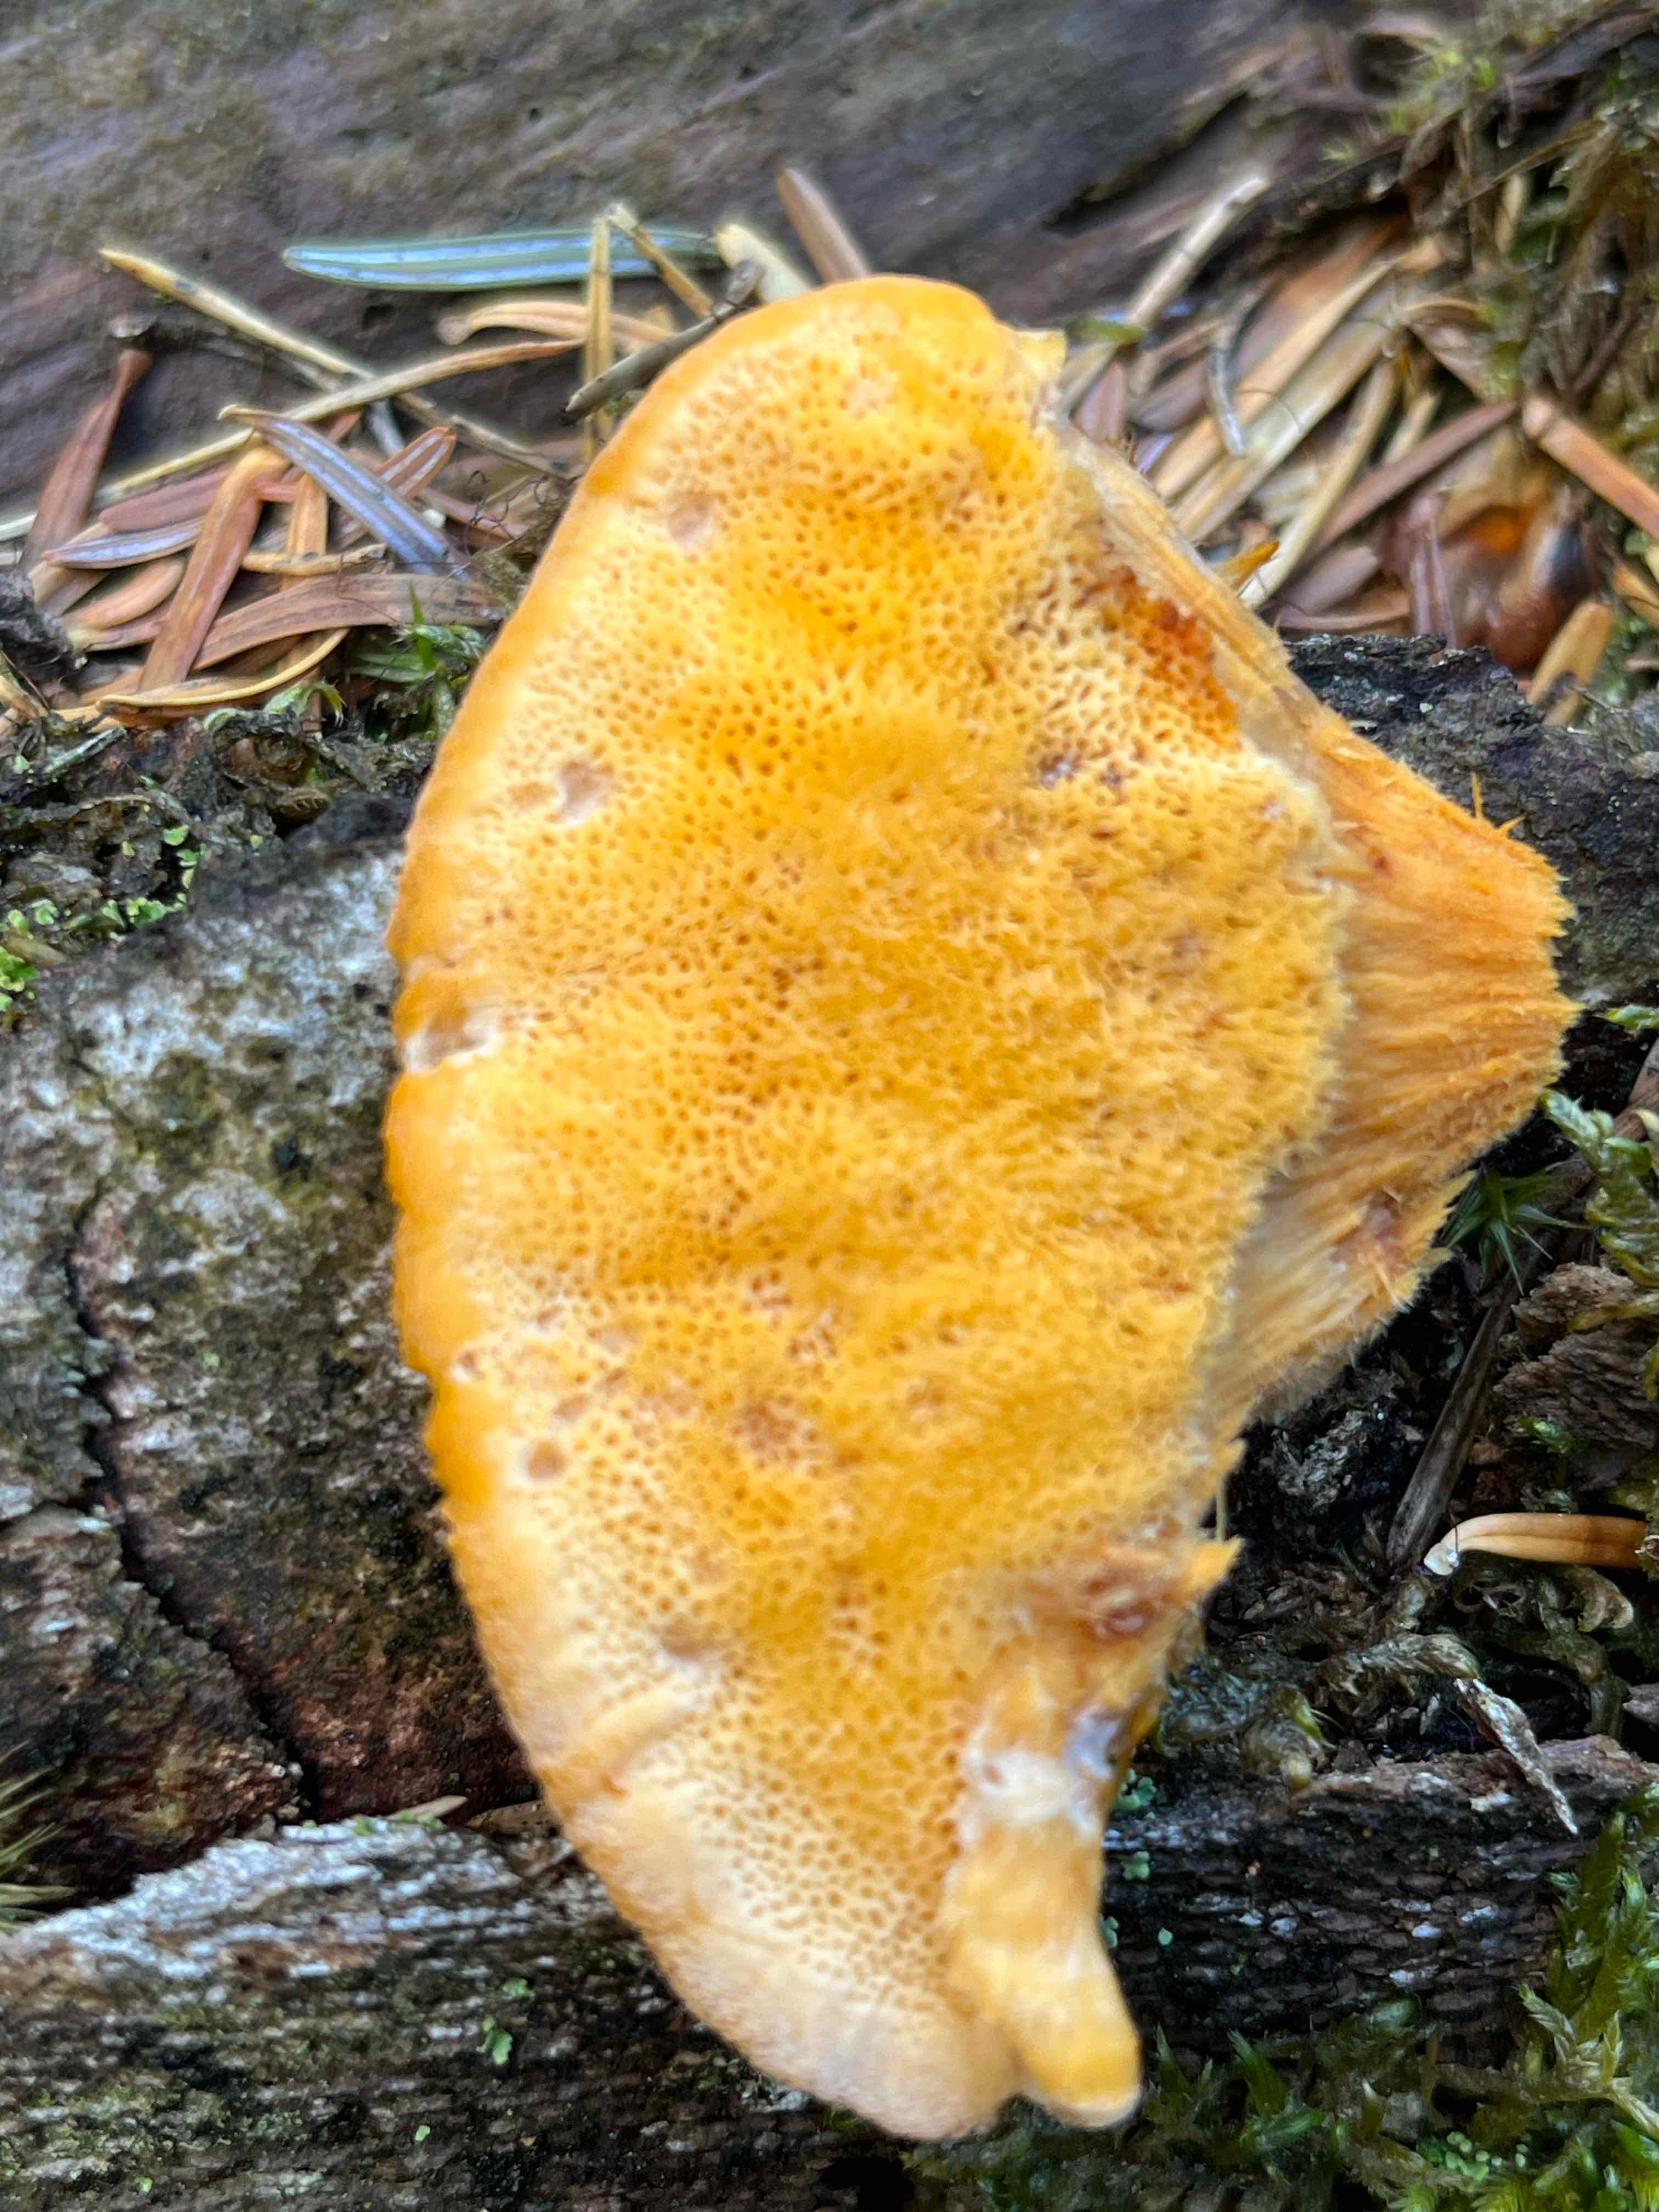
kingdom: Fungi
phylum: Basidiomycota
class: Agaricomycetes
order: Polyporales
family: Pycnoporellaceae
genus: Pycnoporellus
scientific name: Pycnoporellus fulgens
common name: flammeporesvamp
